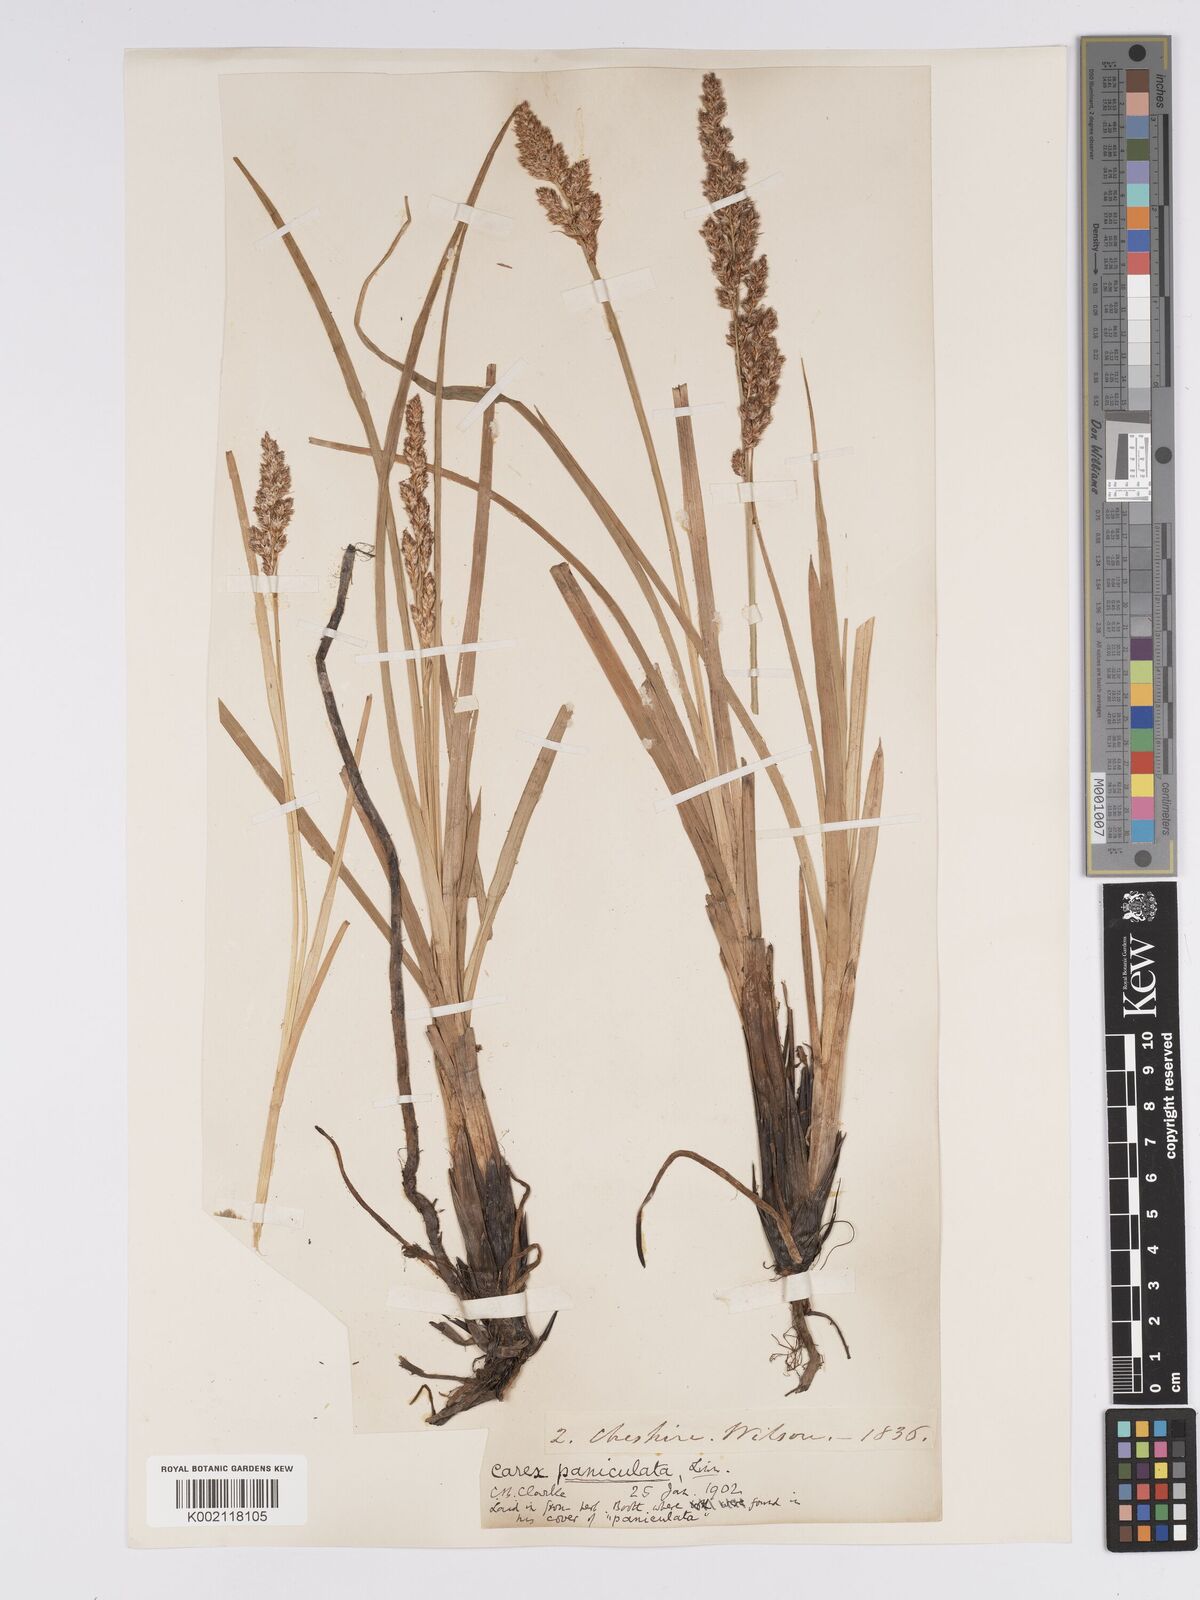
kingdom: Plantae
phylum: Tracheophyta
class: Liliopsida
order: Poales
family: Cyperaceae
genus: Carex
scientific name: Carex paniculata
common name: Greater tussock-sedge
